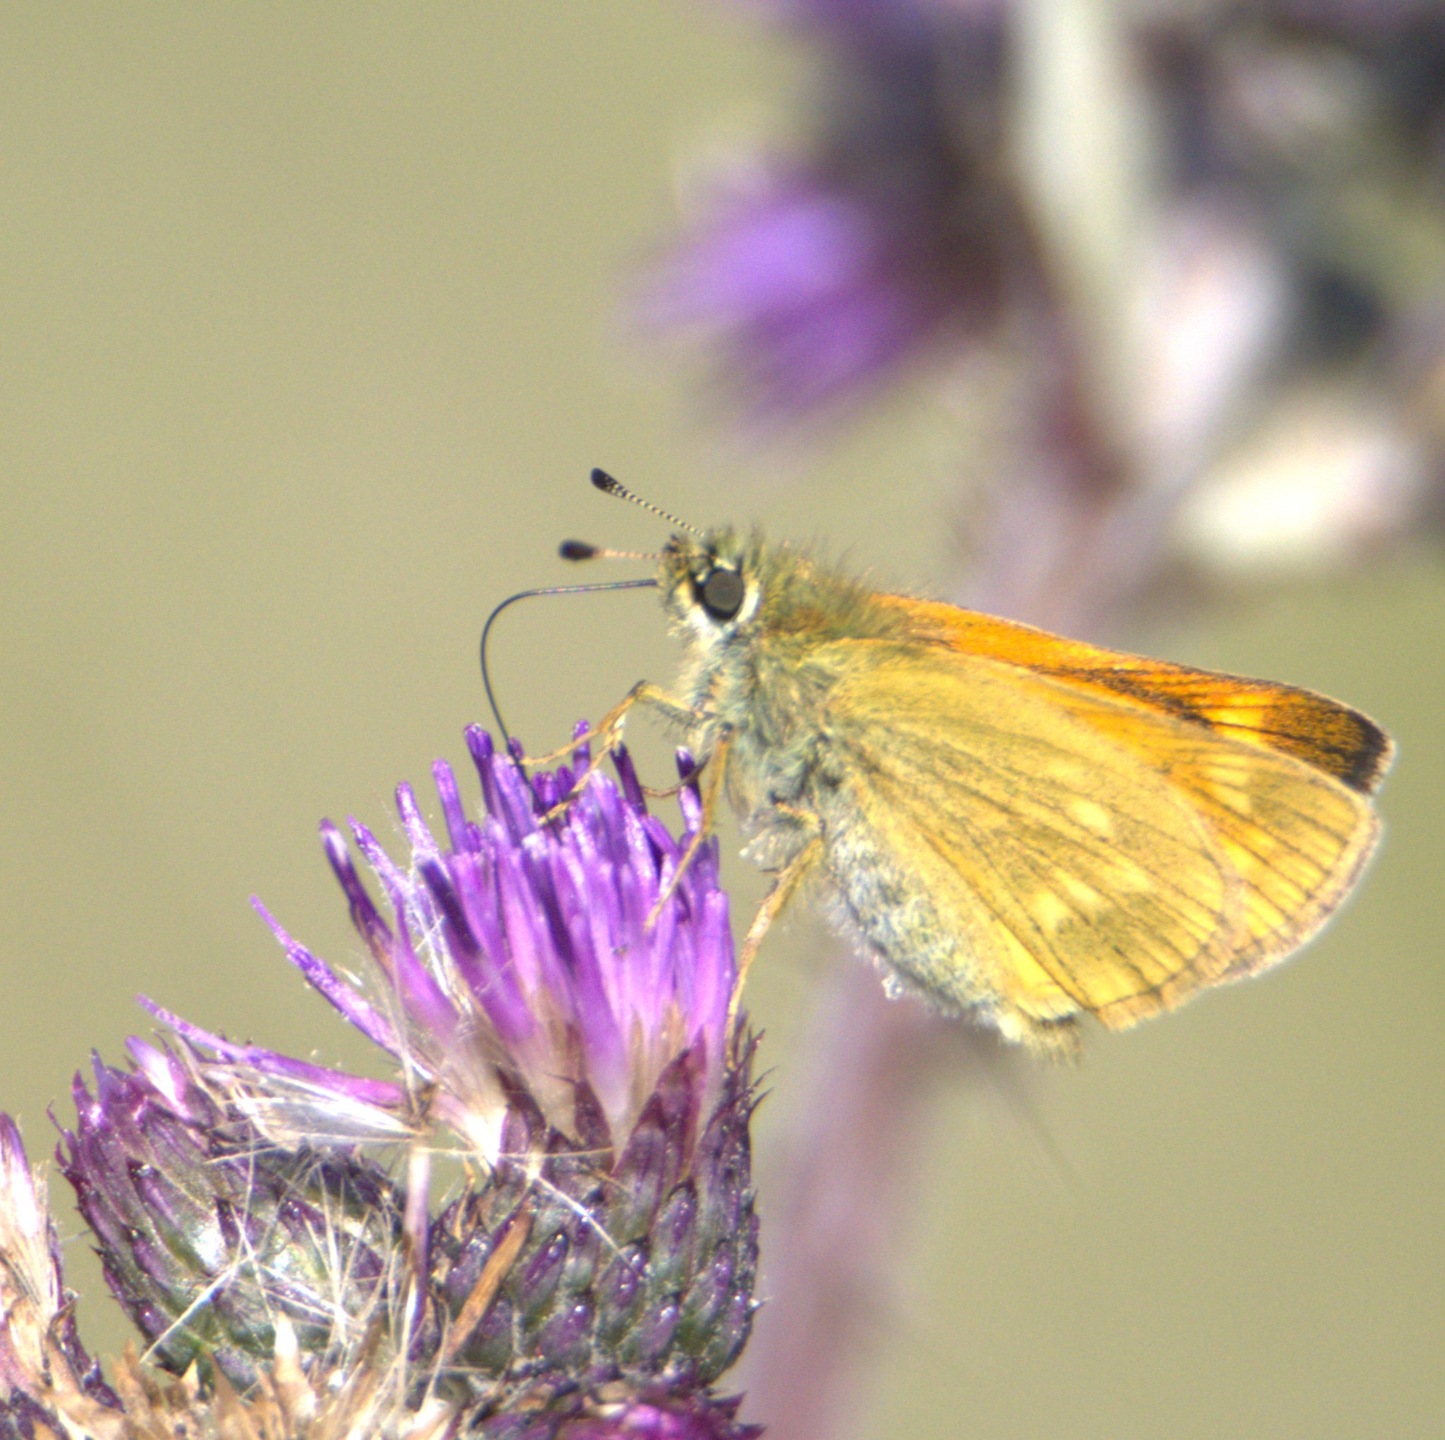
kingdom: Animalia
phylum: Arthropoda
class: Insecta
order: Lepidoptera
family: Hesperiidae
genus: Ochlodes
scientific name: Ochlodes venata
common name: Stor bredpande
